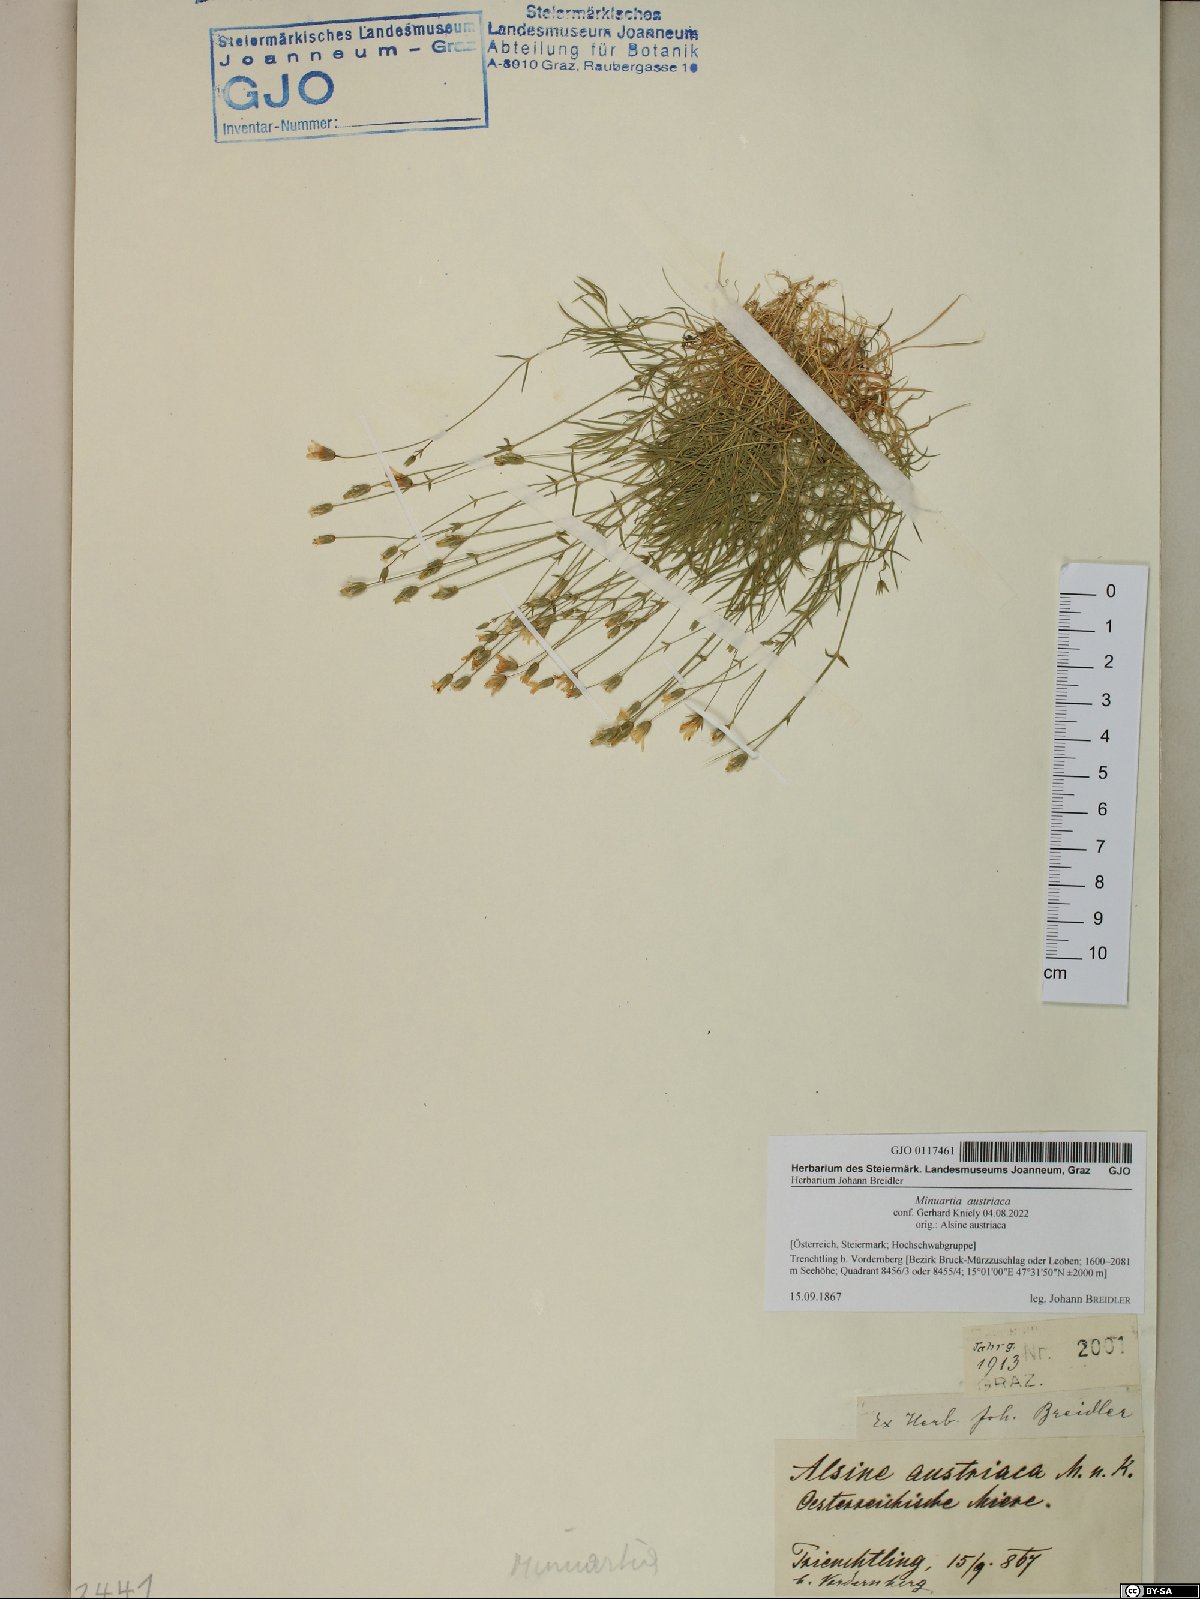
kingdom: Plantae
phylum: Tracheophyta
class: Magnoliopsida
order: Caryophyllales
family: Caryophyllaceae
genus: Sabulina
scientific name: Sabulina austriaca
